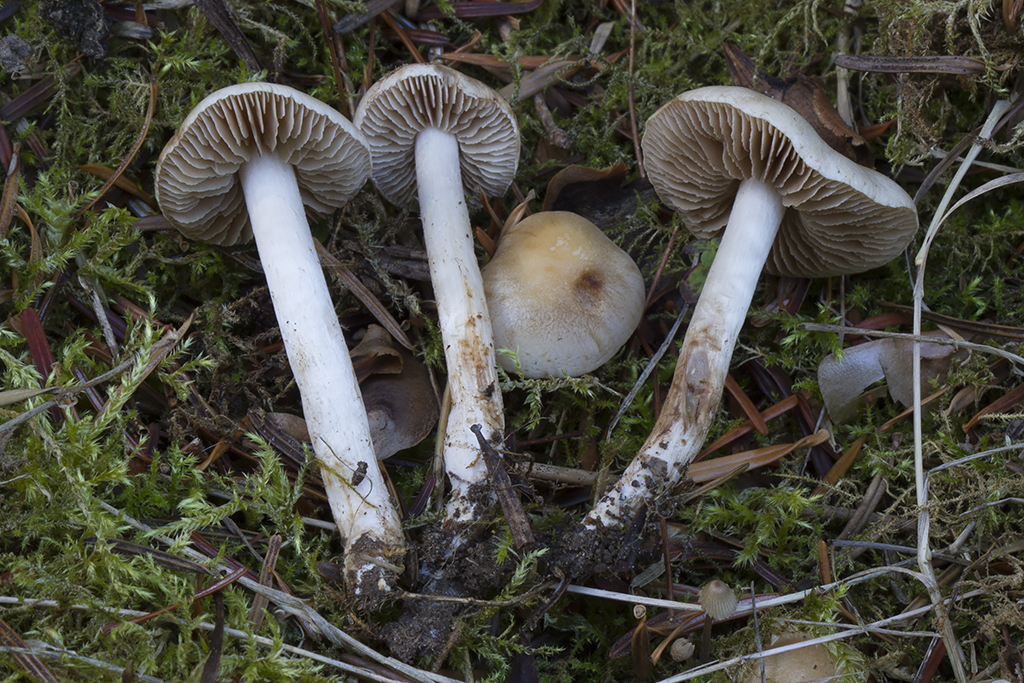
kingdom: Fungi
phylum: Basidiomycota
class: Agaricomycetes
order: Agaricales
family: Hymenogastraceae
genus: Hebeloma
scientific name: Hebeloma sacchariolens
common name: sødtduftende tåreblad
